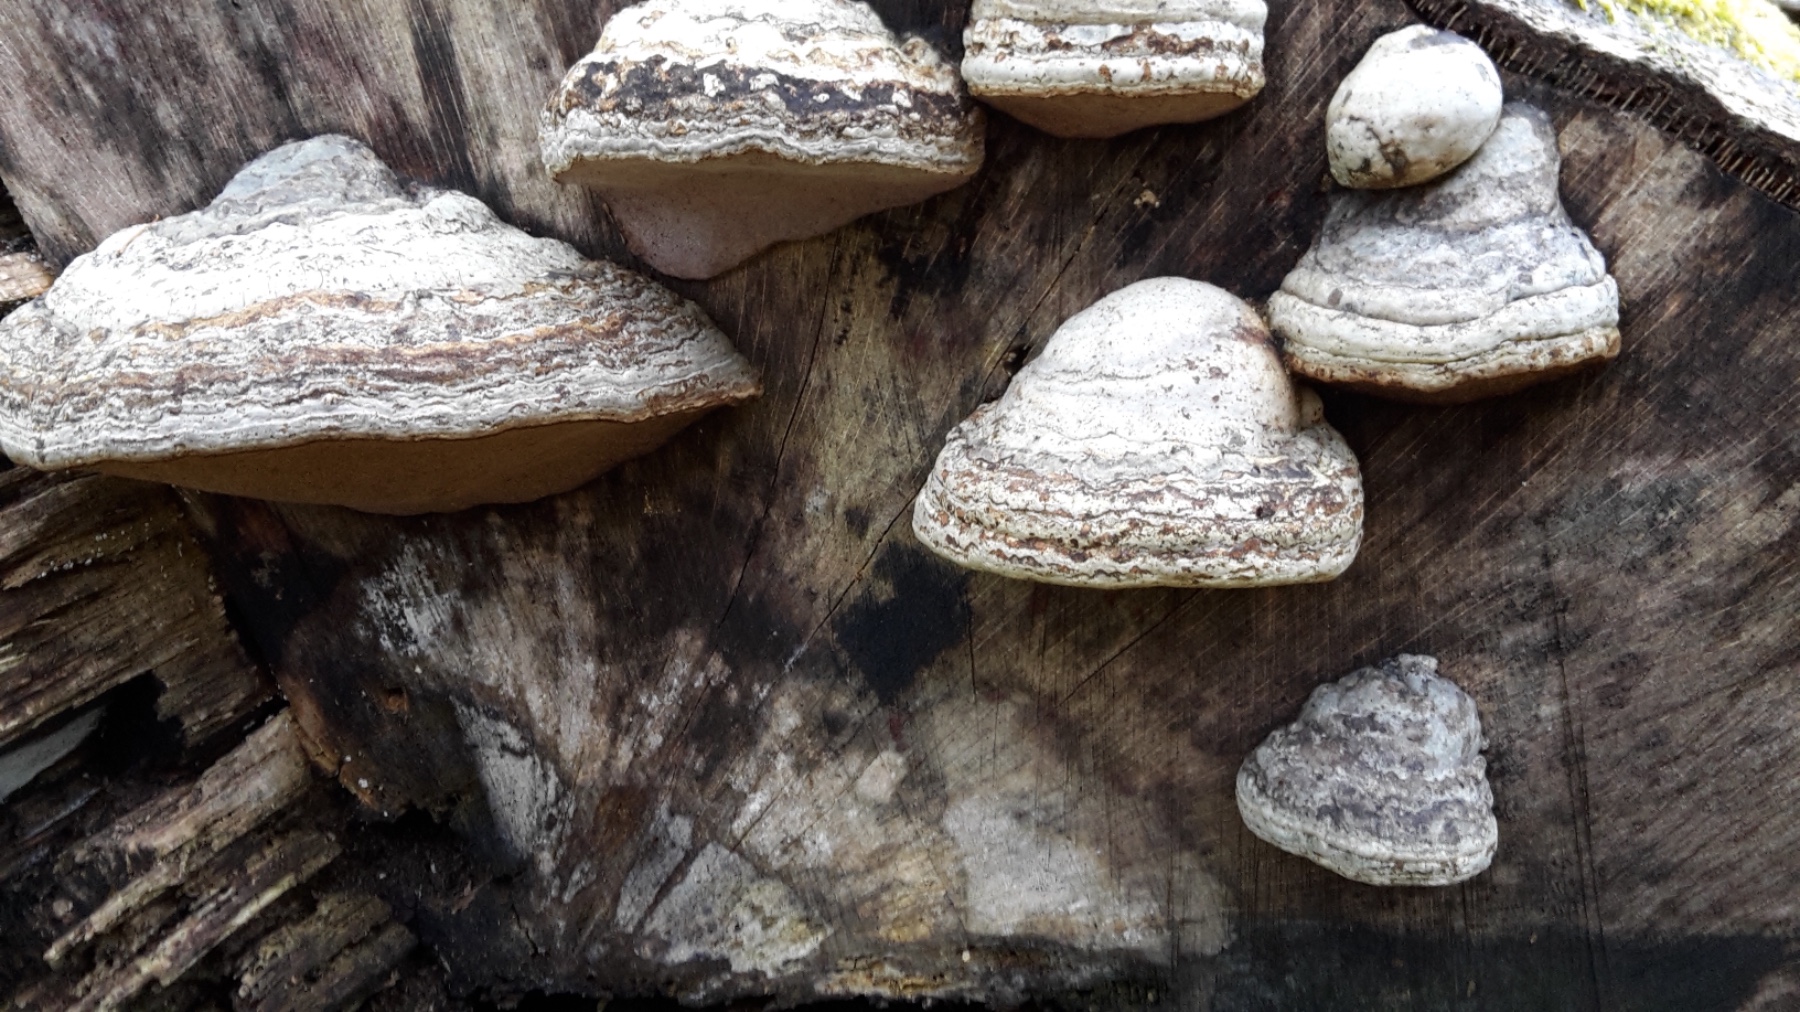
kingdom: Fungi
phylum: Basidiomycota
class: Agaricomycetes
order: Polyporales
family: Polyporaceae
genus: Fomes
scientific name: Fomes fomentarius
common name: tøndersvamp
